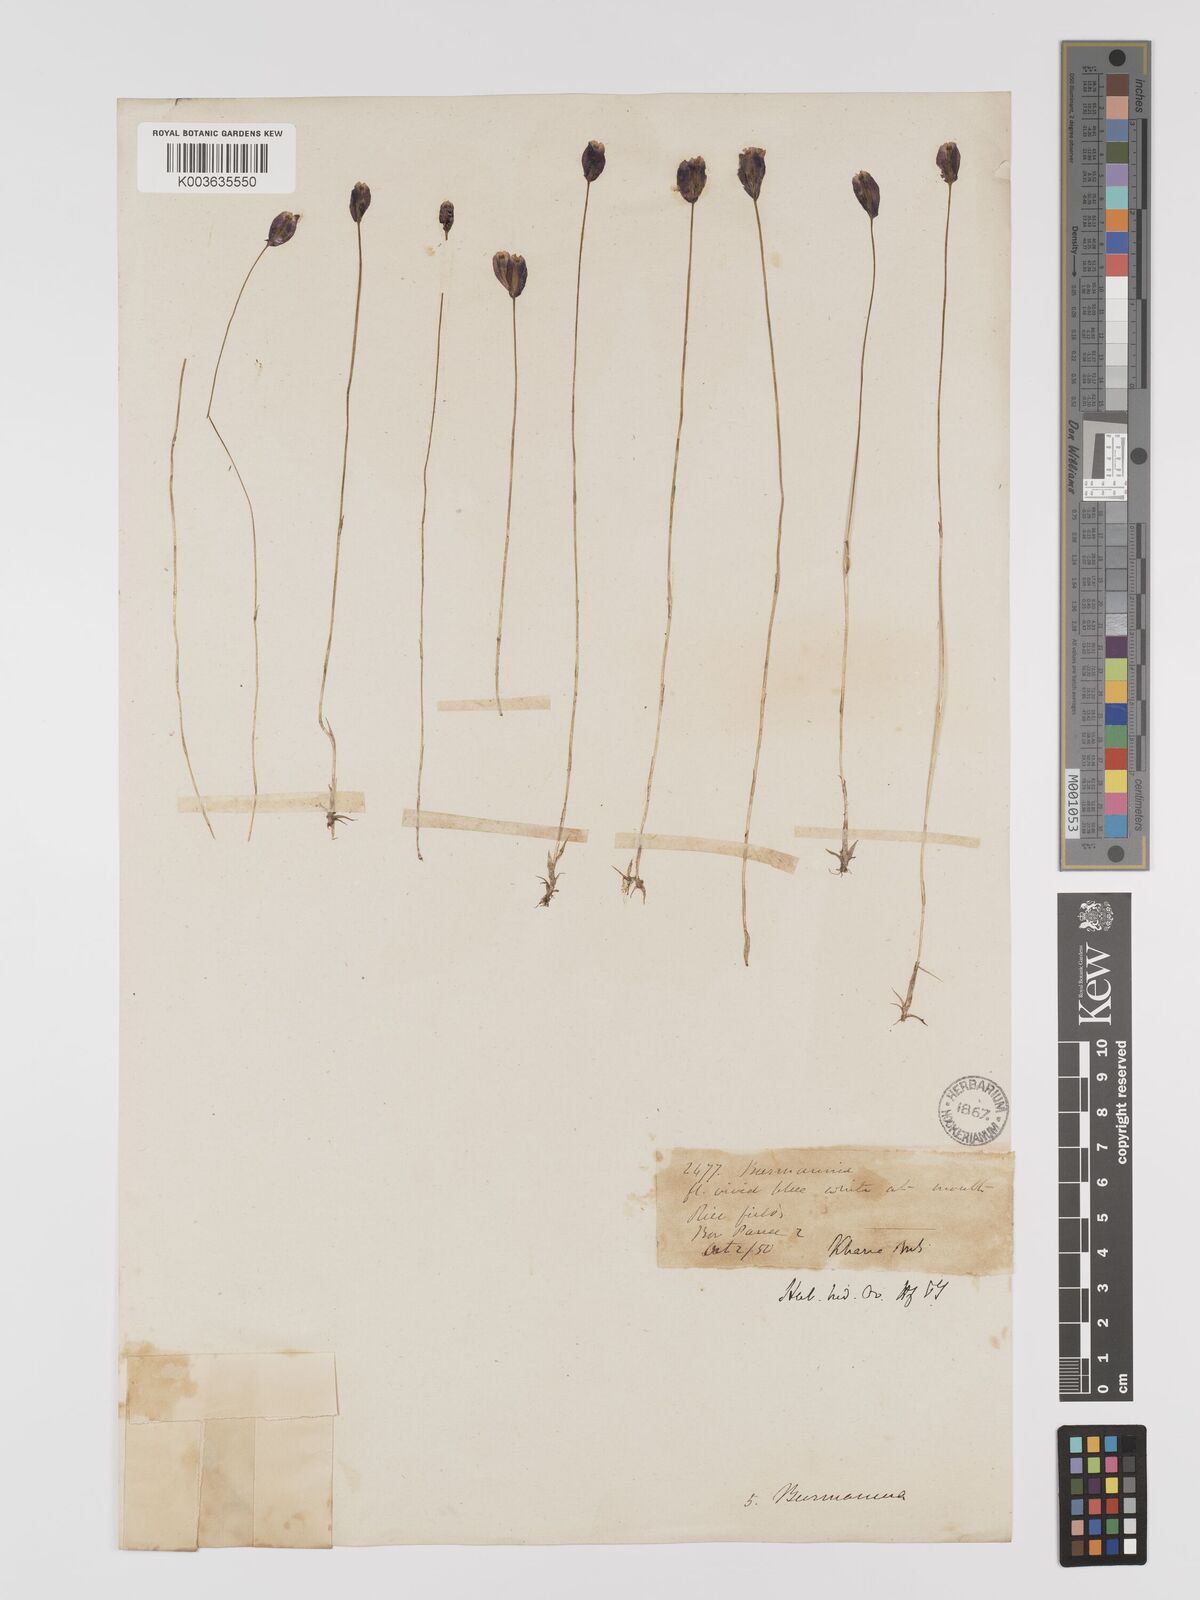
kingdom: Plantae
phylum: Tracheophyta
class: Liliopsida
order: Dioscoreales
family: Burmanniaceae
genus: Burmannia
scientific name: Burmannia coelestis
